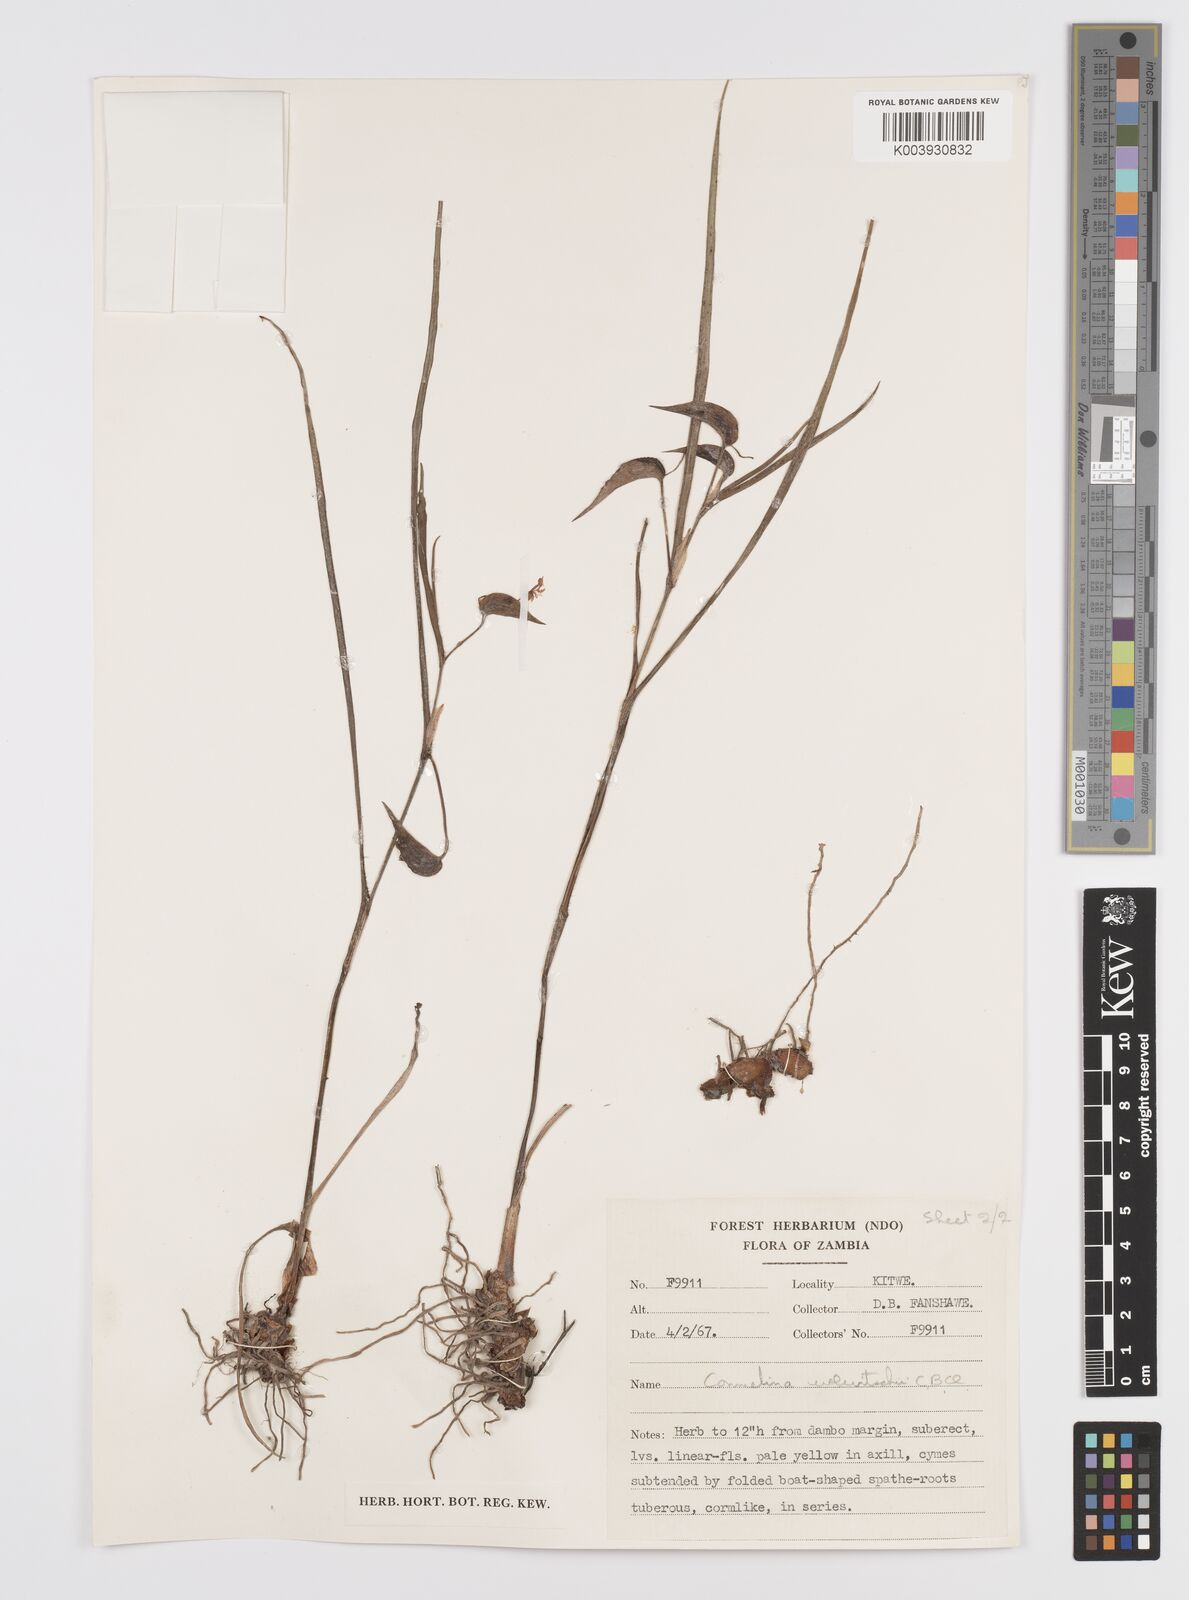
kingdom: Plantae
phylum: Tracheophyta
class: Liliopsida
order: Commelinales
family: Commelinaceae
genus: Commelina
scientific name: Commelina welwitschii
